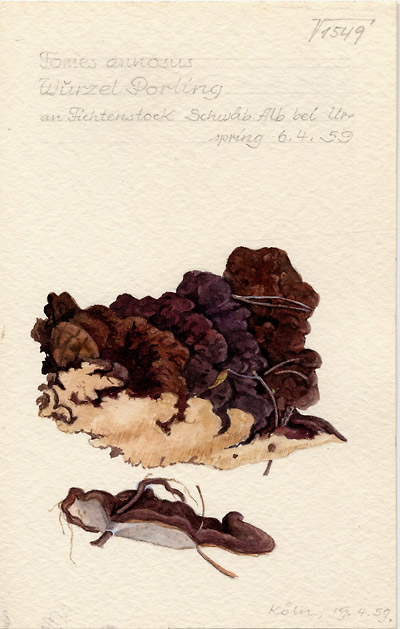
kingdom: Fungi
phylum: Basidiomycota
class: Agaricomycetes
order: Russulales
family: Bondarzewiaceae
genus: Heterobasidion
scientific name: Heterobasidion annosum
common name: Root rot
